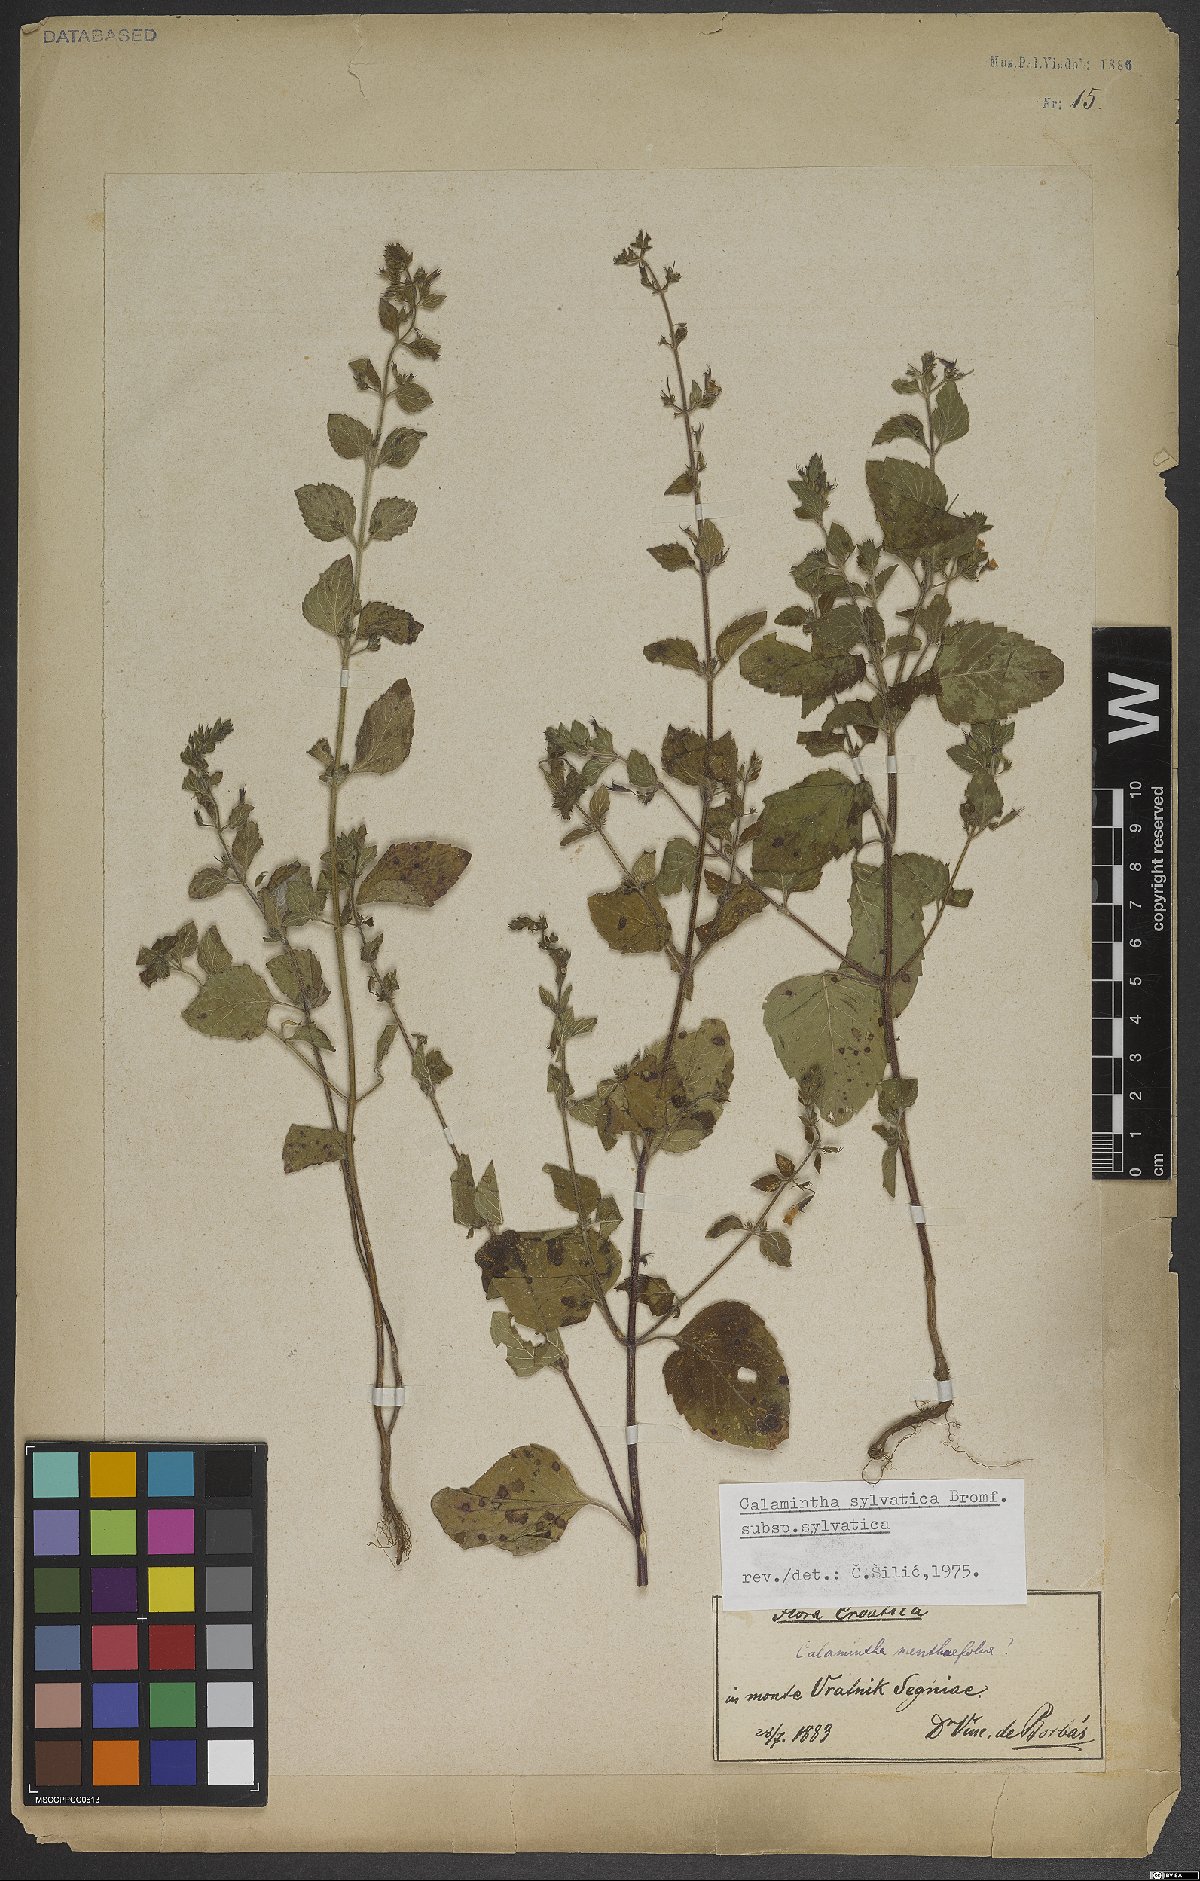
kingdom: Plantae
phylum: Tracheophyta
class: Magnoliopsida
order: Lamiales
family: Lamiaceae
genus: Clinopodium
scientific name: Clinopodium menthifolium
